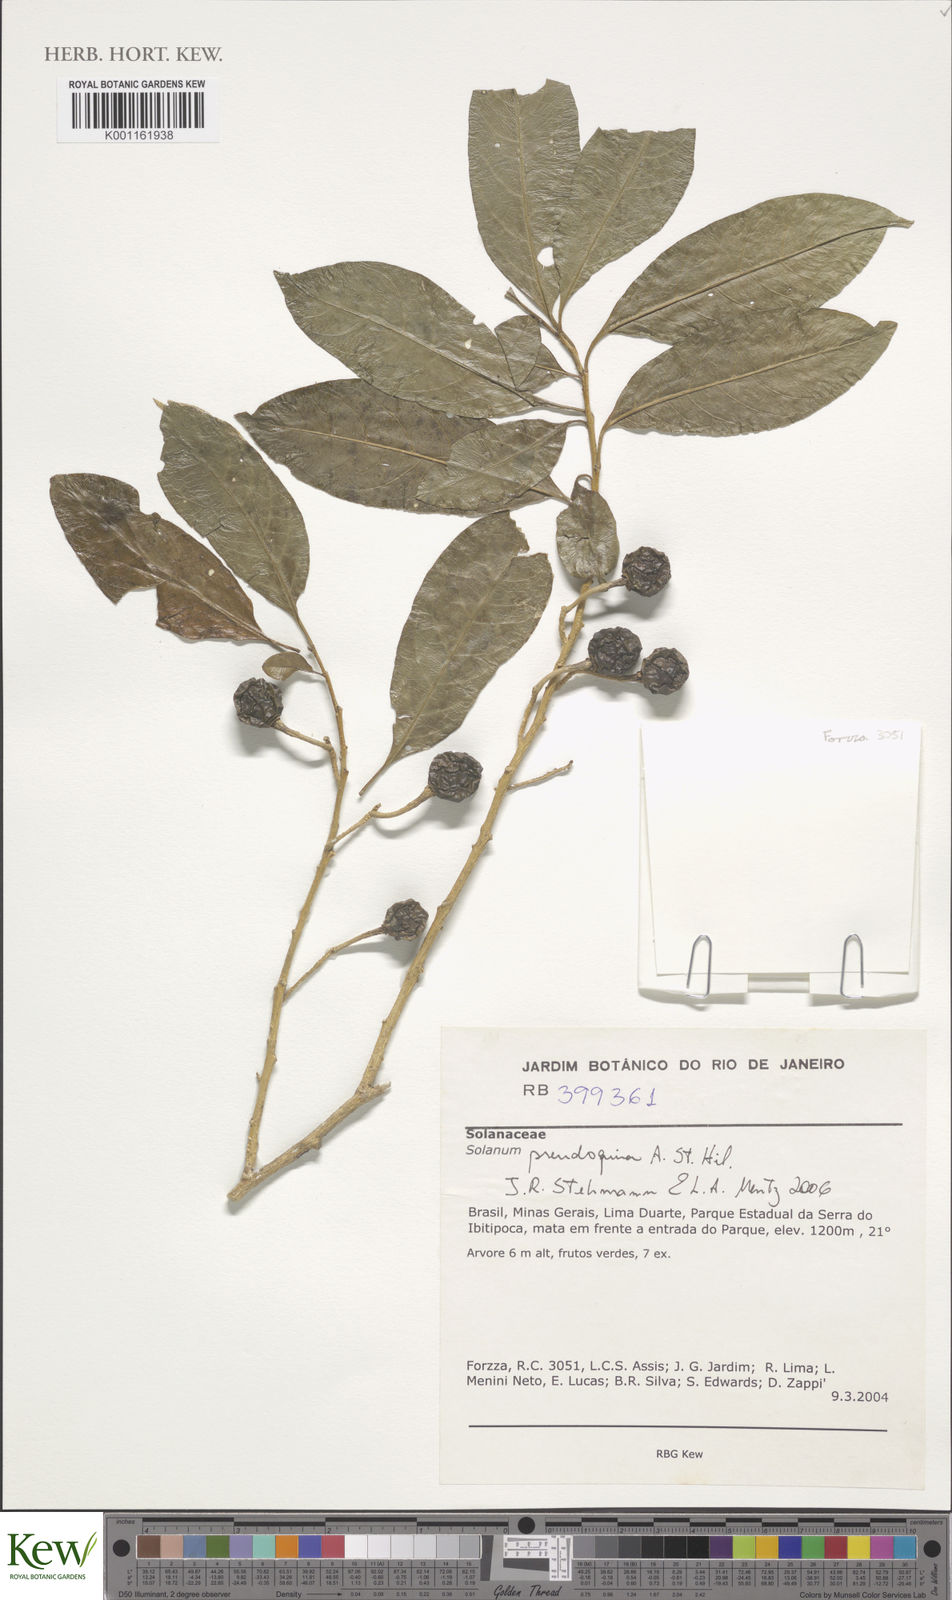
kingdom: Plantae
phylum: Tracheophyta
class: Magnoliopsida
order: Solanales
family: Solanaceae
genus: Solanum
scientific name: Solanum pseudoquina
